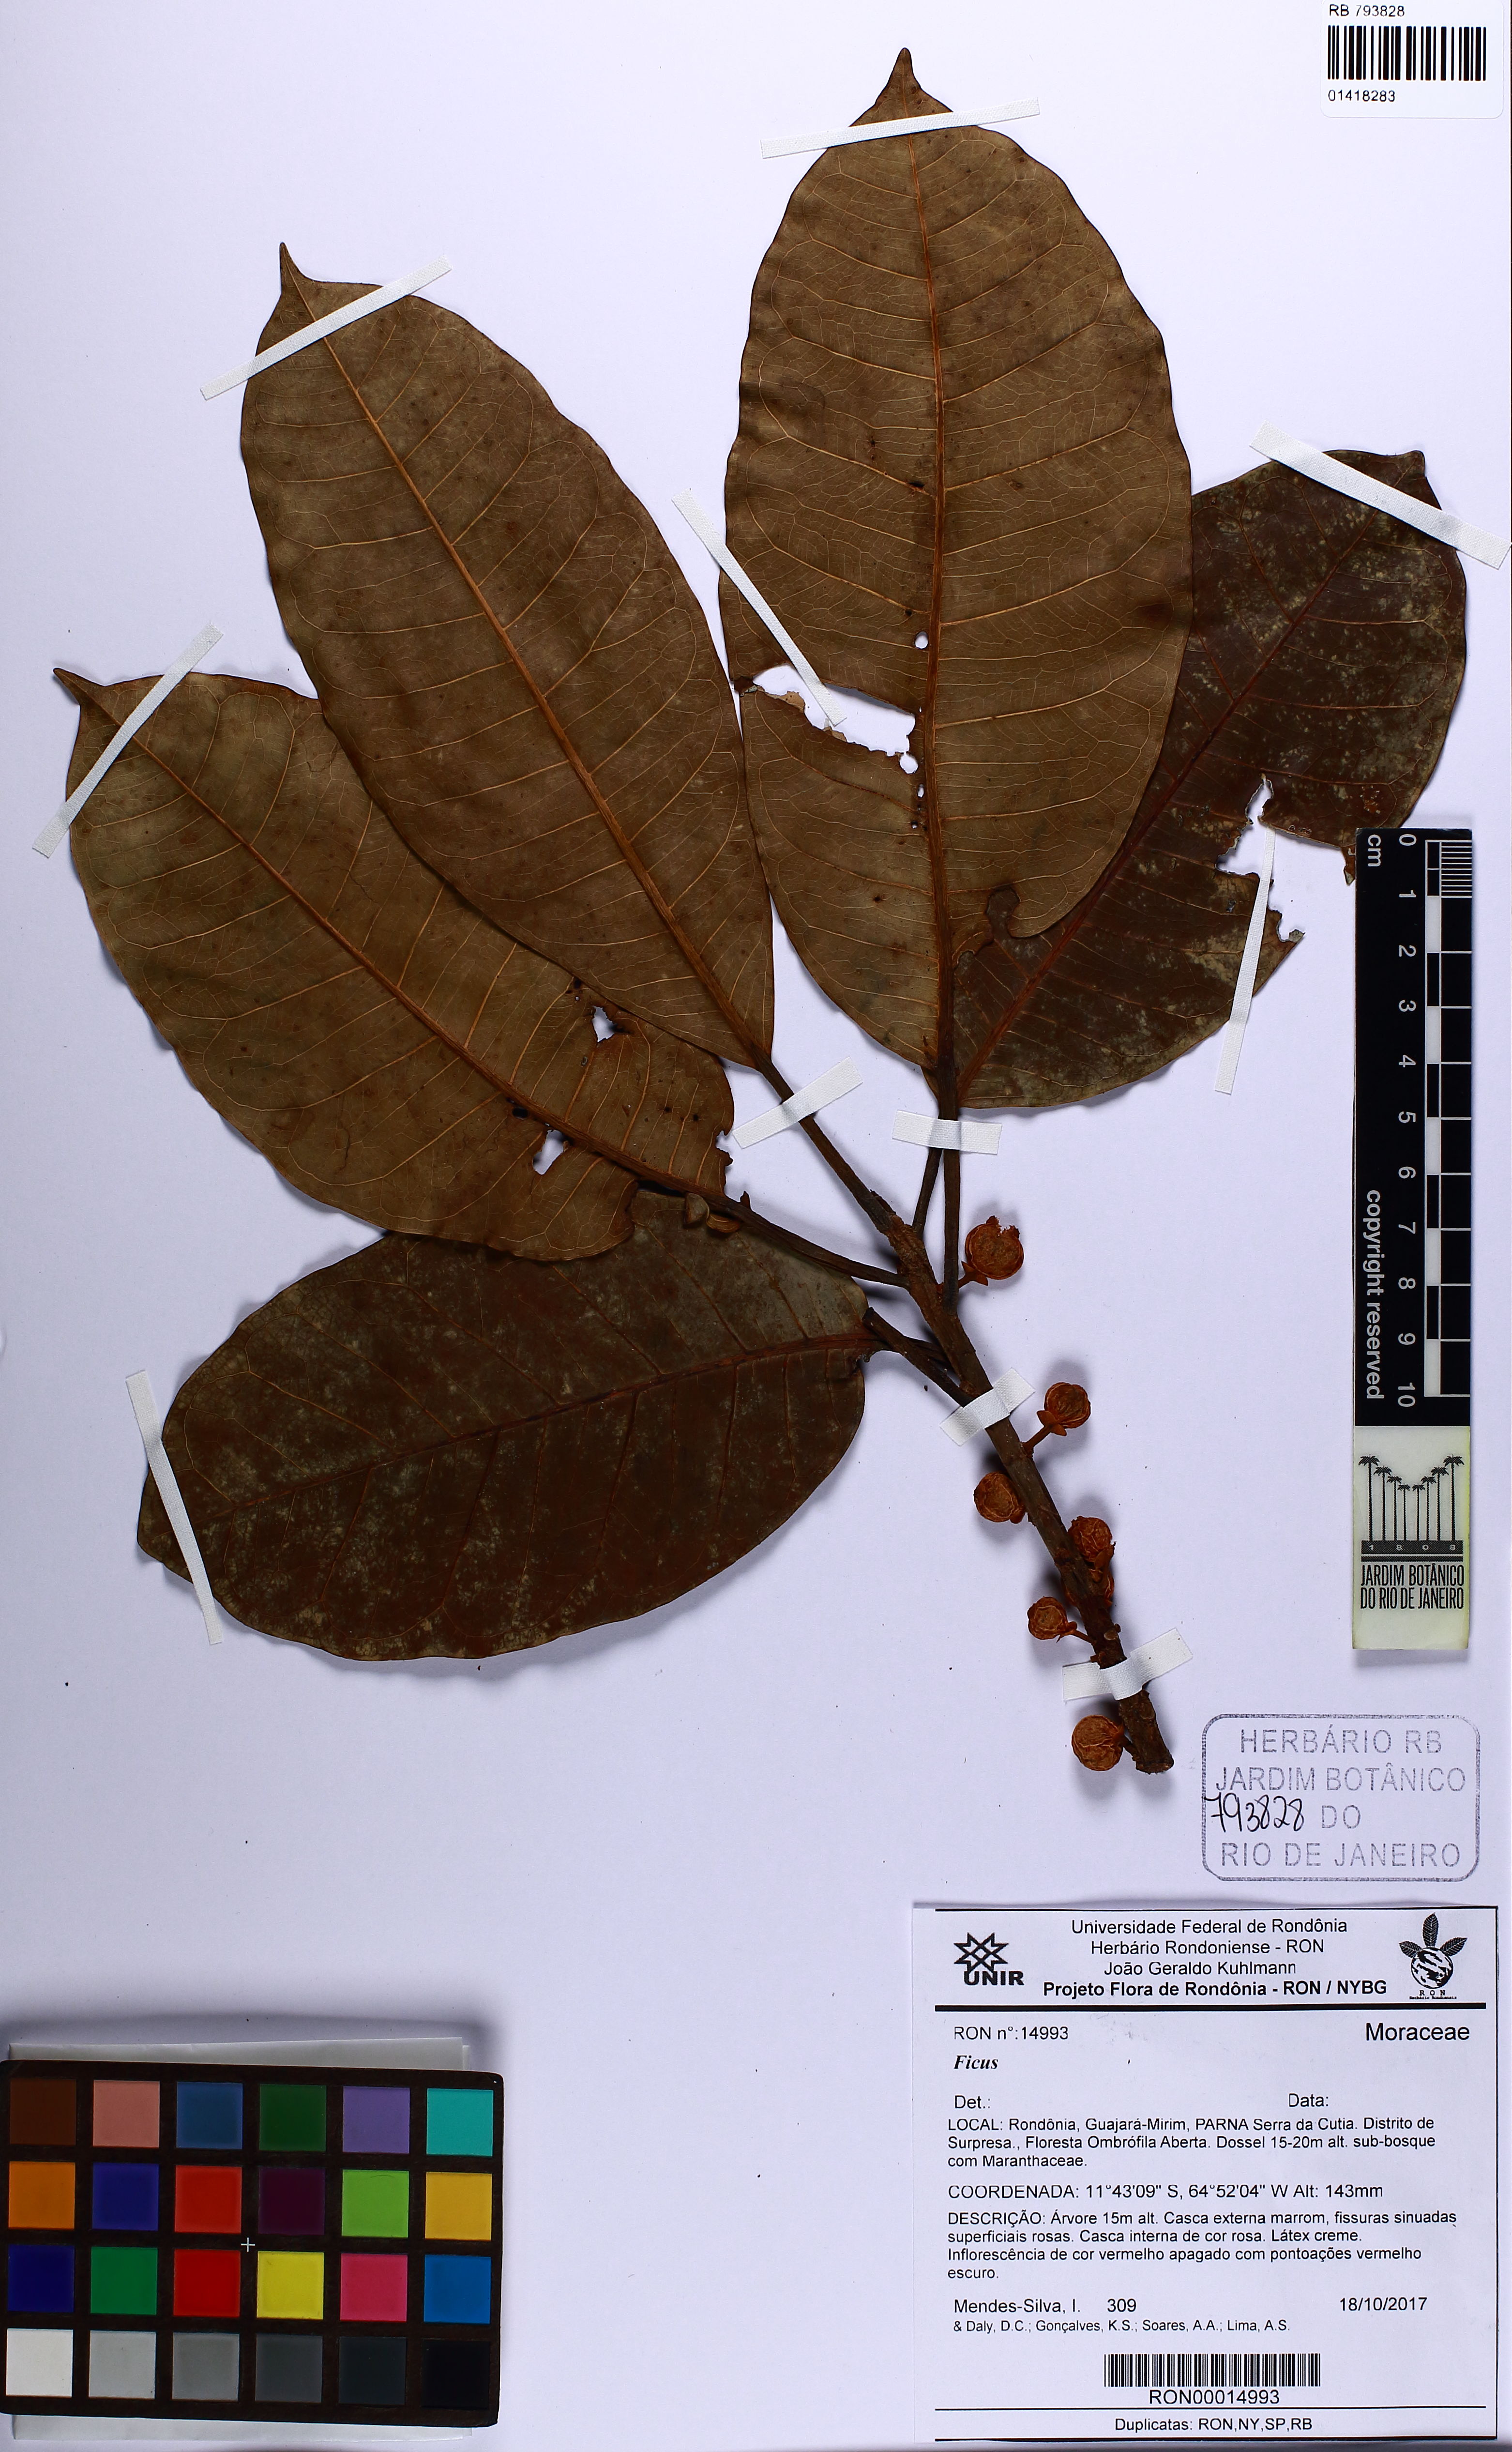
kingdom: Plantae
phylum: Tracheophyta
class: Magnoliopsida
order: Rosales
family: Moraceae
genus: Ficus
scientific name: Ficus americana
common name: Jamaican cherry fig
